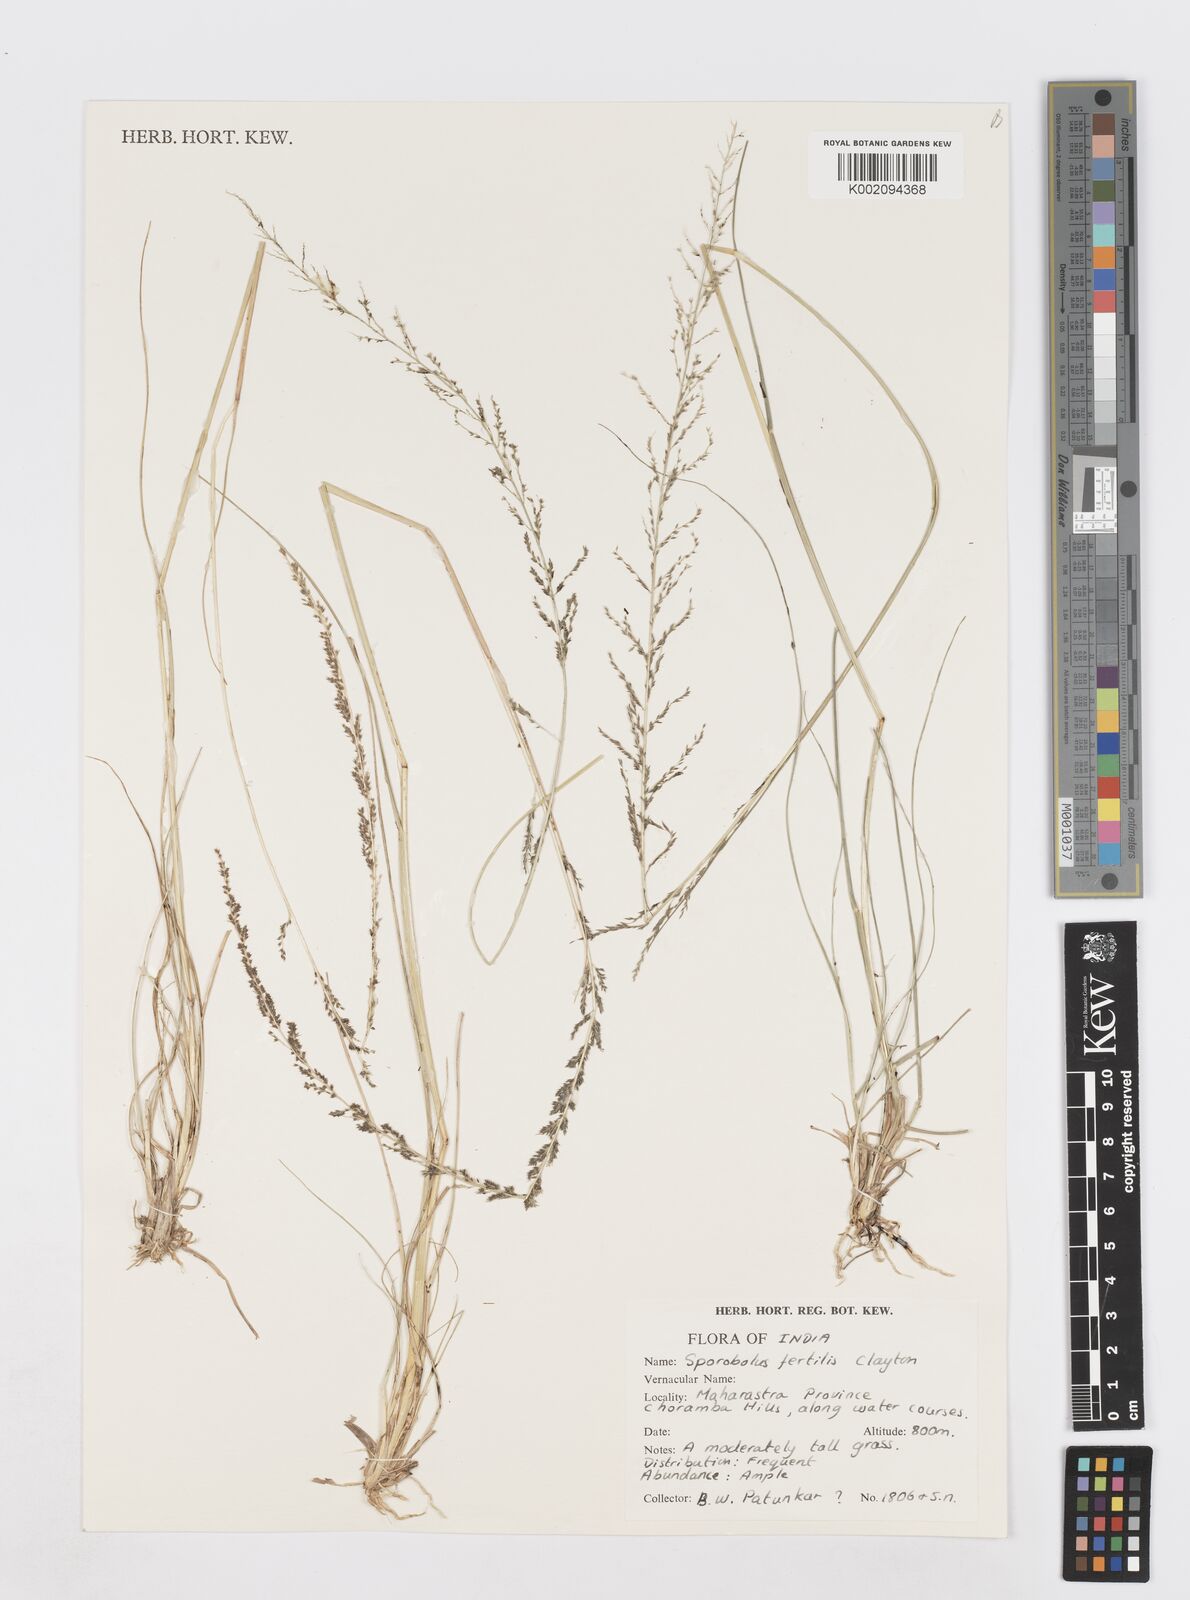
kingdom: Plantae
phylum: Tracheophyta
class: Liliopsida
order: Poales
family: Poaceae
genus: Sporobolus
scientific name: Sporobolus fertilis
